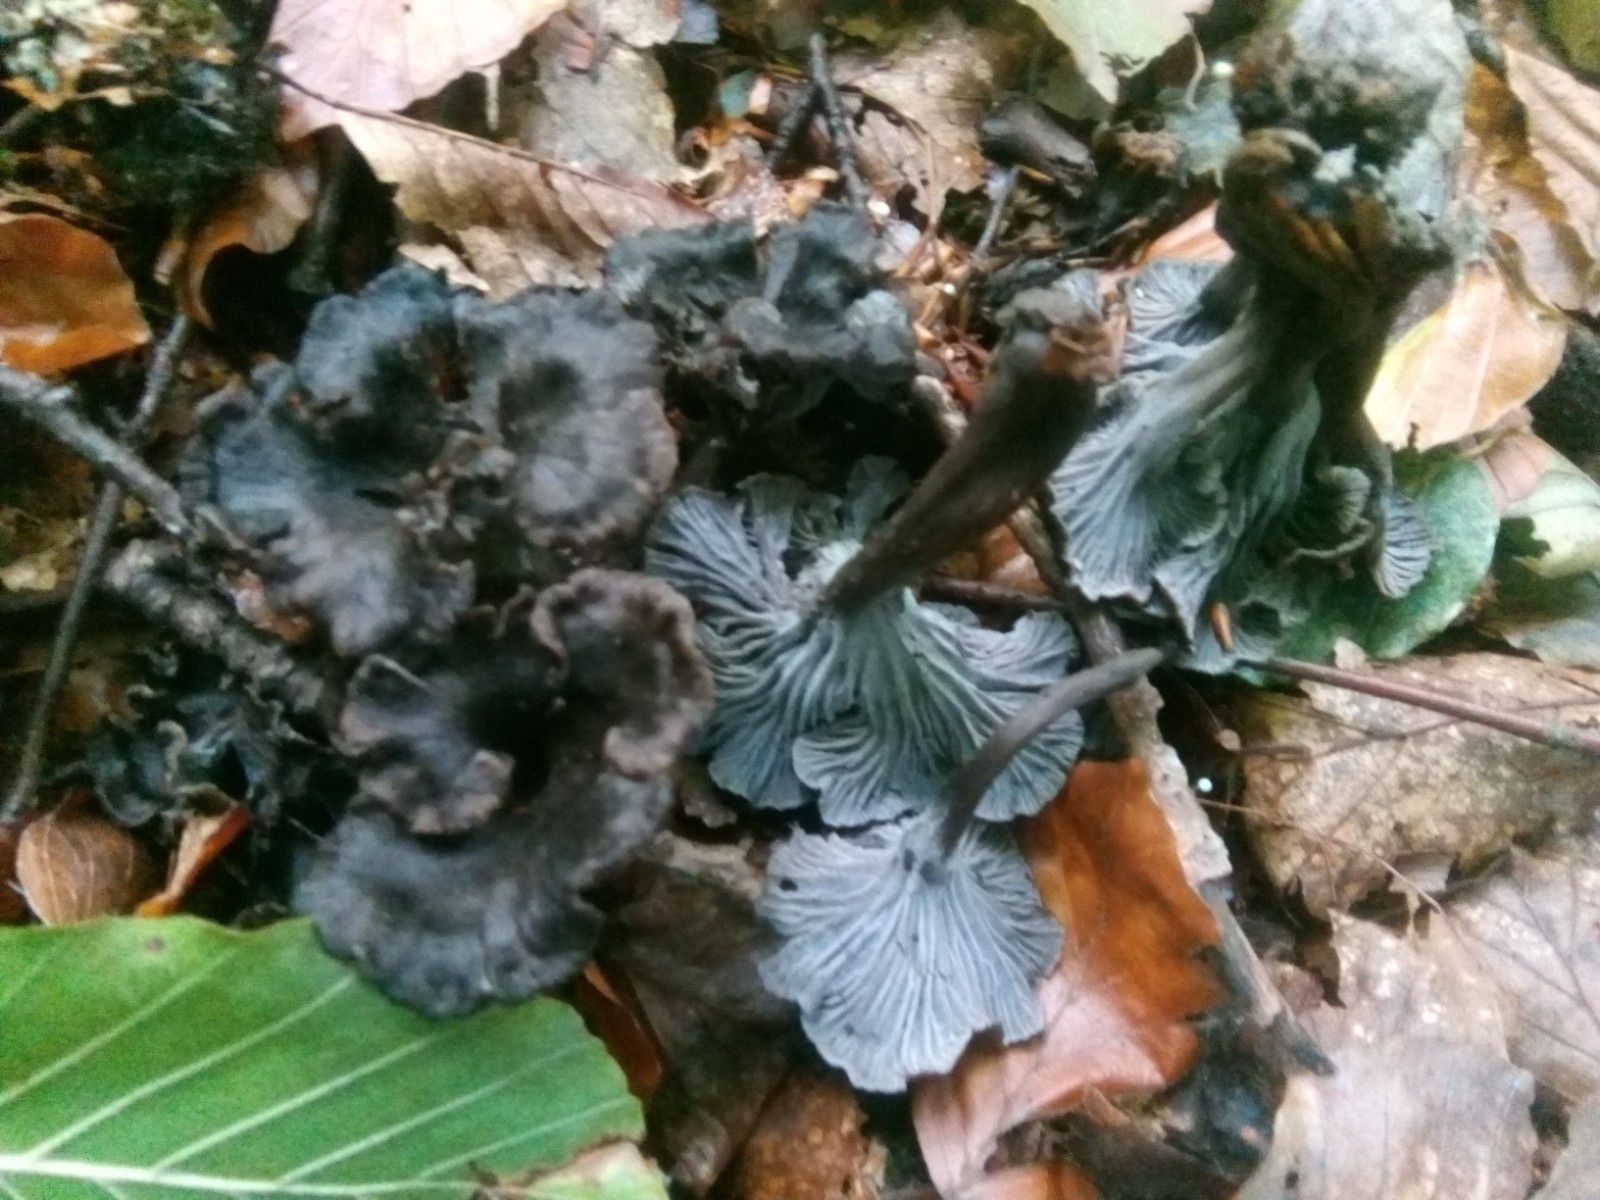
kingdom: Fungi
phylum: Basidiomycota
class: Agaricomycetes
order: Cantharellales
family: Hydnaceae
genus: Cantharellus
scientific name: Cantharellus cinereus
